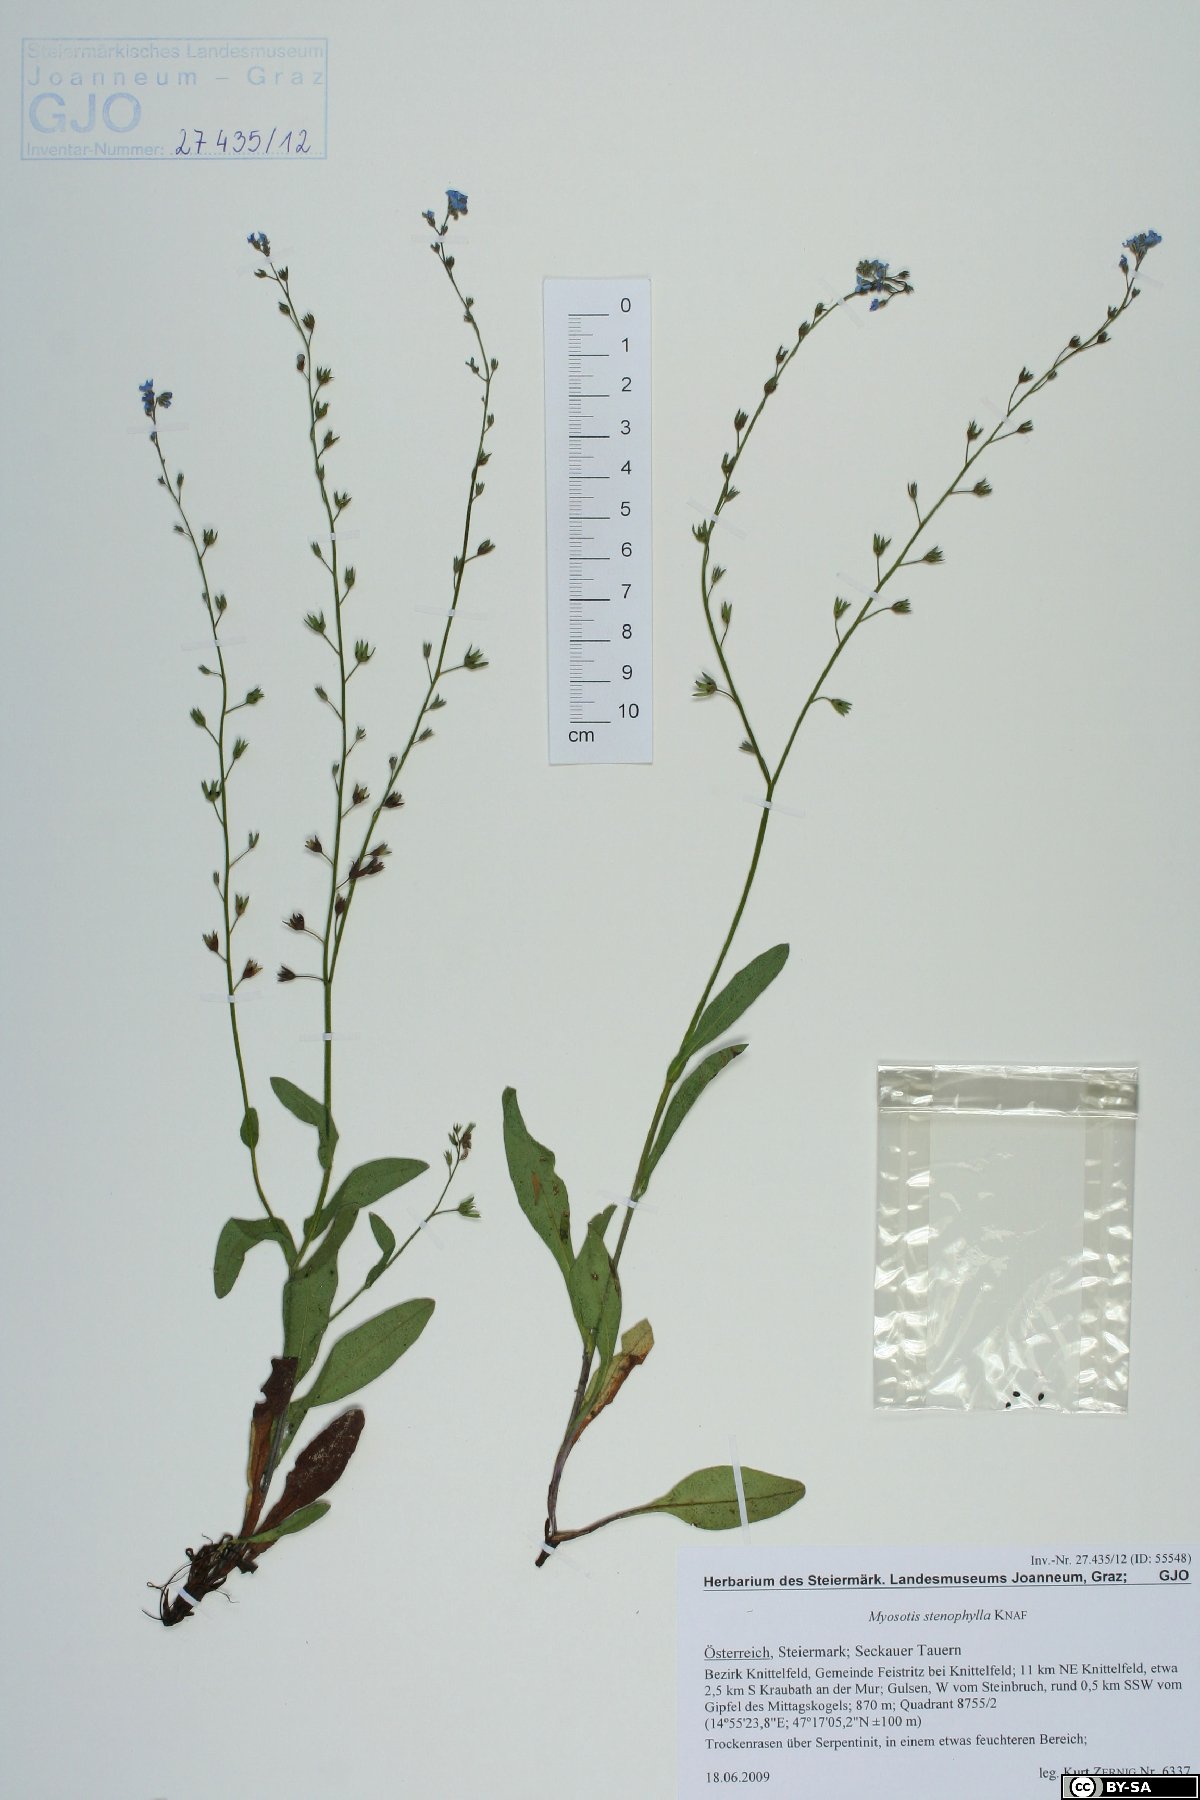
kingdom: Plantae
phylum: Tracheophyta
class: Magnoliopsida
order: Boraginales
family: Boraginaceae
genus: Myosotis
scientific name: Myosotis stenophylla
